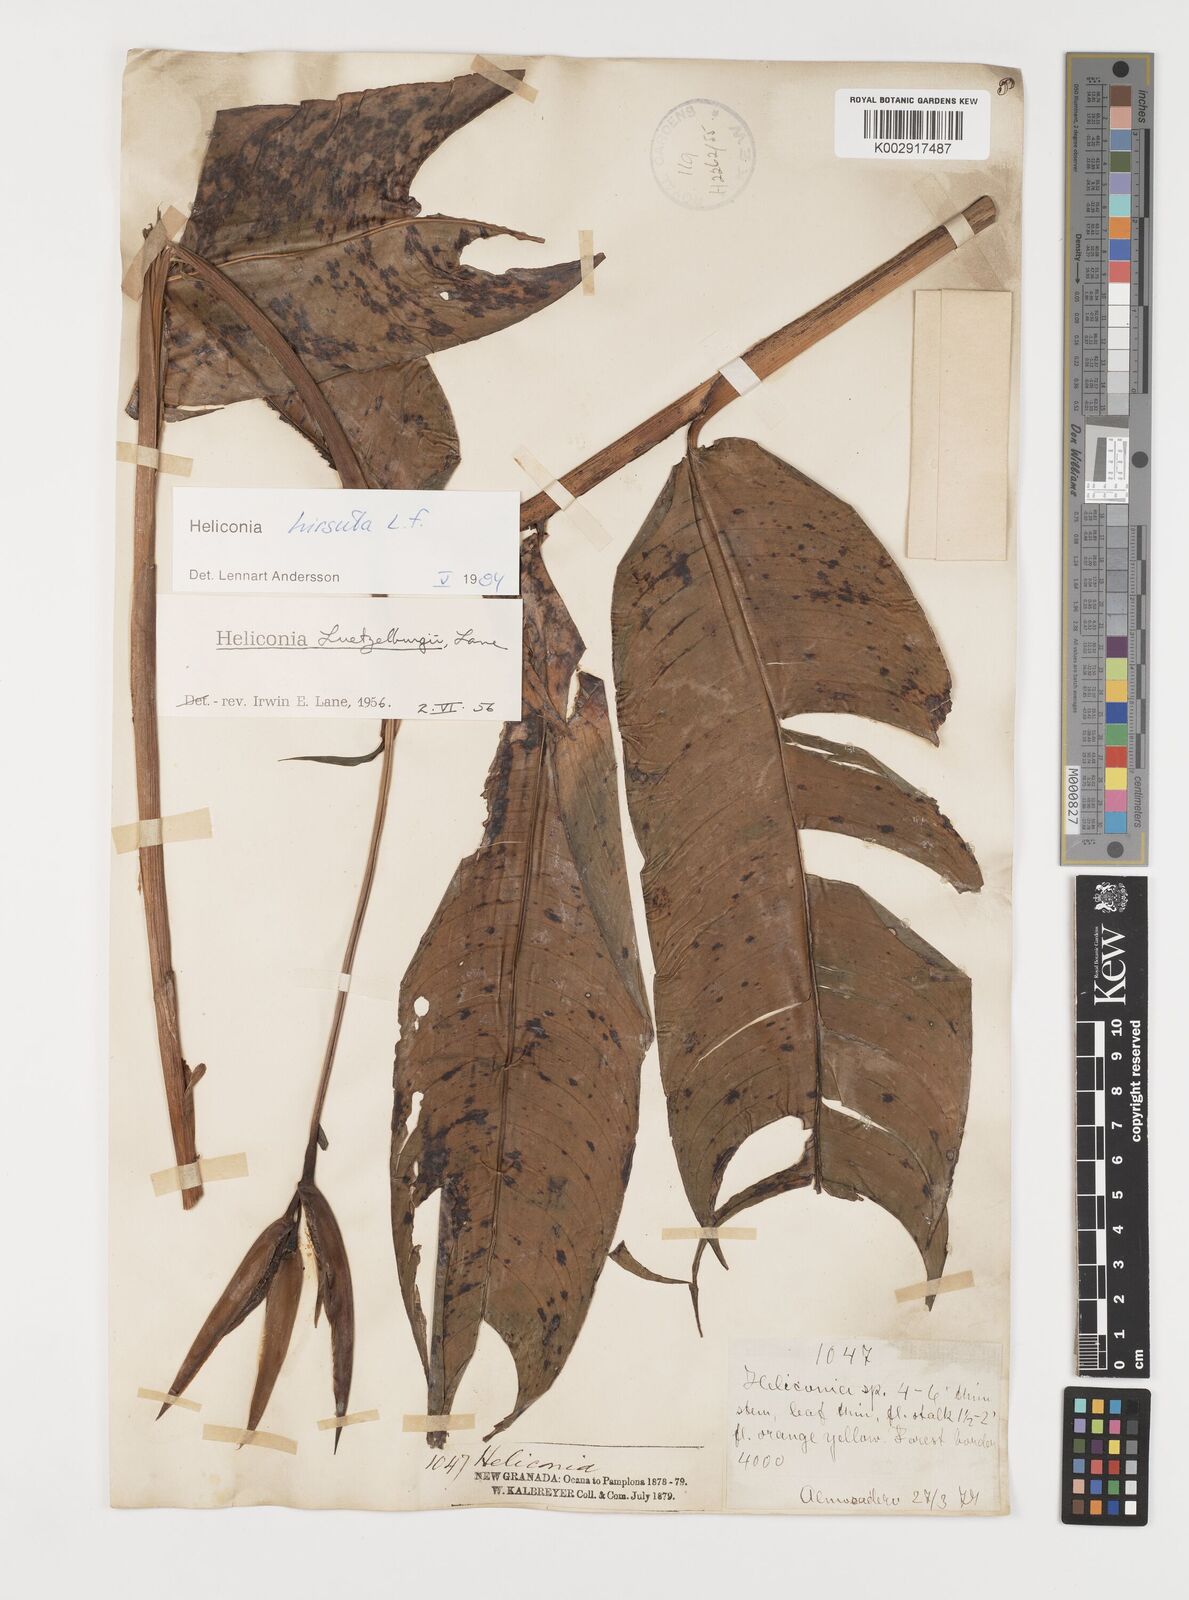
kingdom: Plantae
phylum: Tracheophyta
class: Liliopsida
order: Zingiberales
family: Heliconiaceae
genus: Heliconia
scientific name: Heliconia schiedeana
